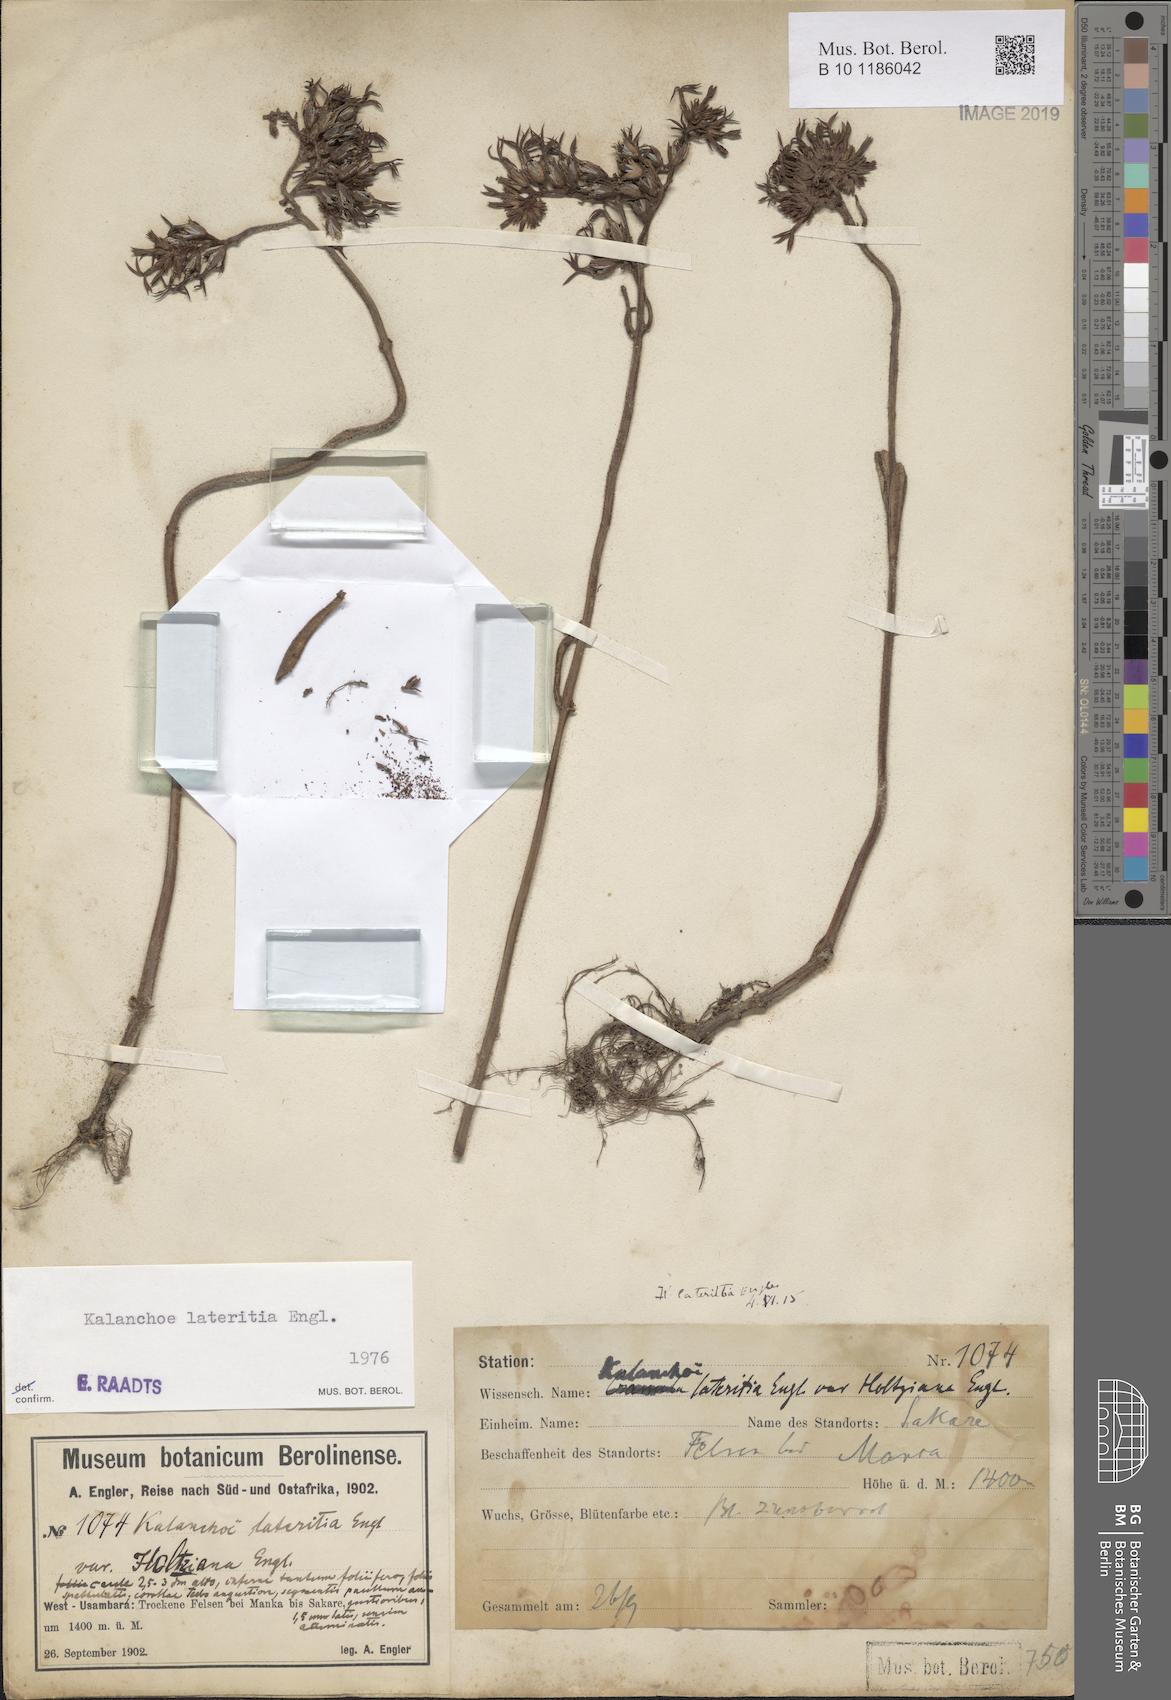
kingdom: Plantae
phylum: Tracheophyta
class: Magnoliopsida
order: Saxifragales
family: Crassulaceae
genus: Kalanchoe
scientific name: Kalanchoe lateritia
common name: Kalanchoe
